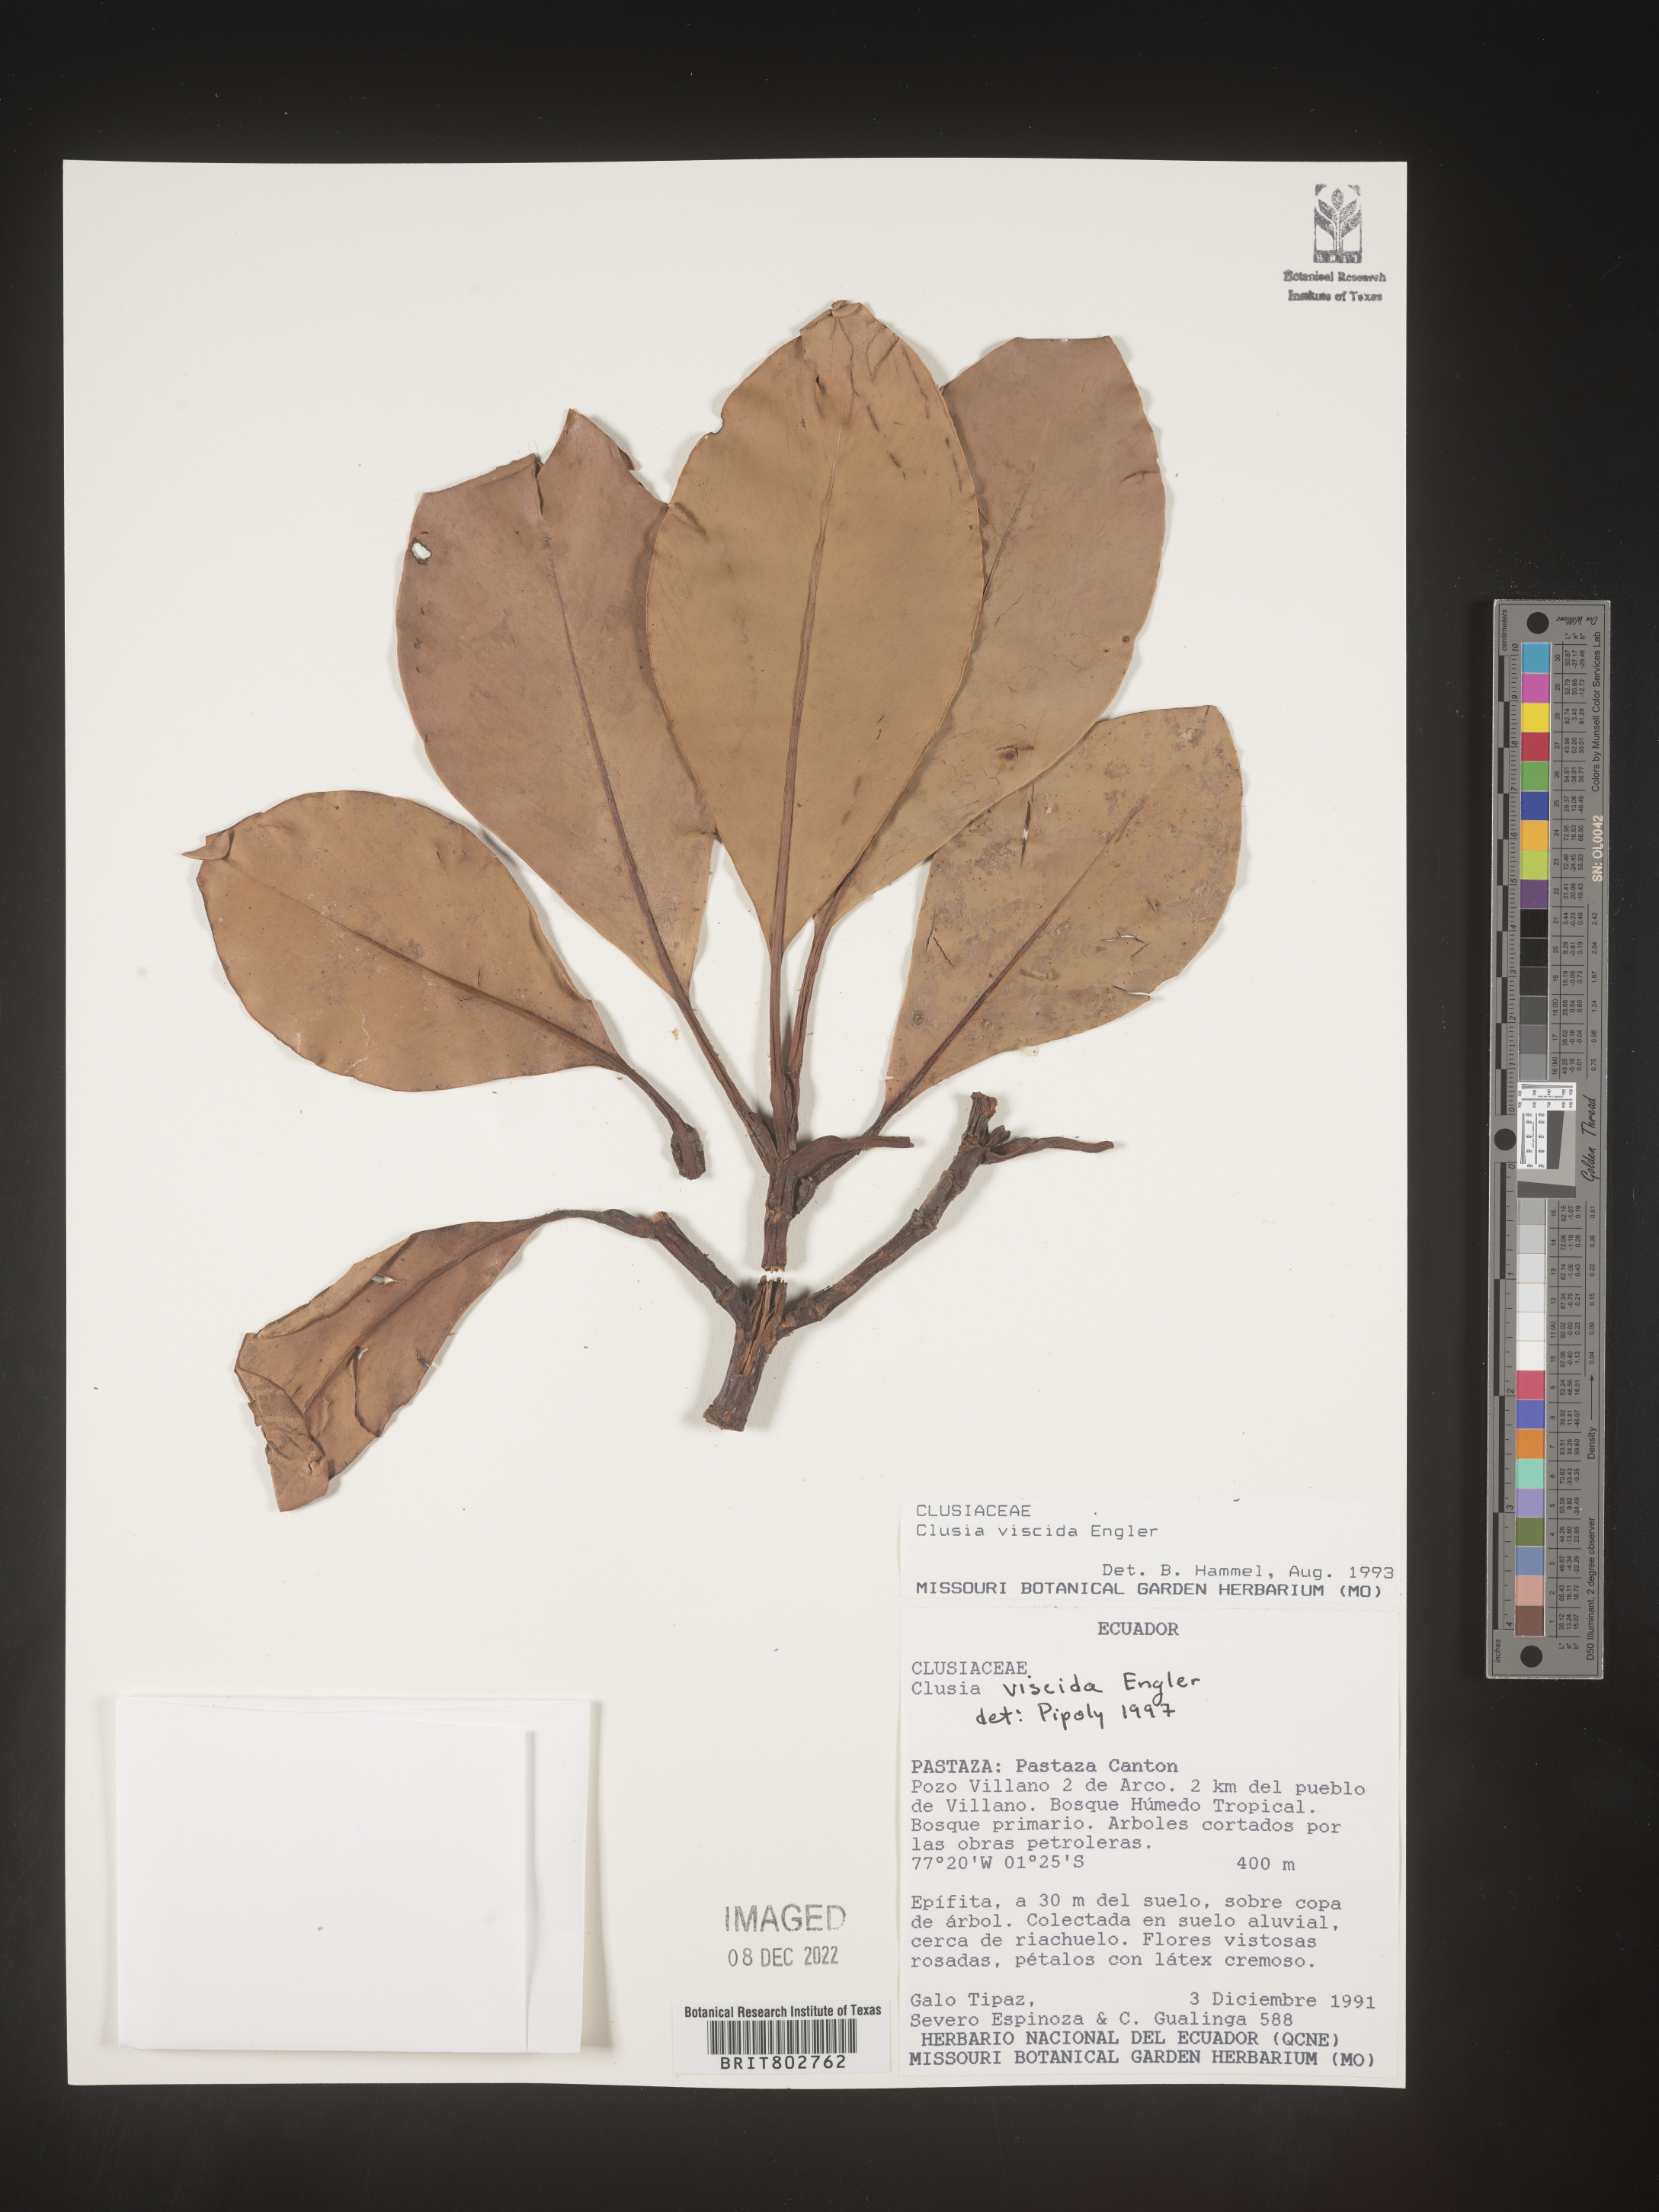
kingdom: Plantae
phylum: Tracheophyta
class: Magnoliopsida
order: Malpighiales
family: Clusiaceae
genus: Clusia
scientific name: Clusia viscida
